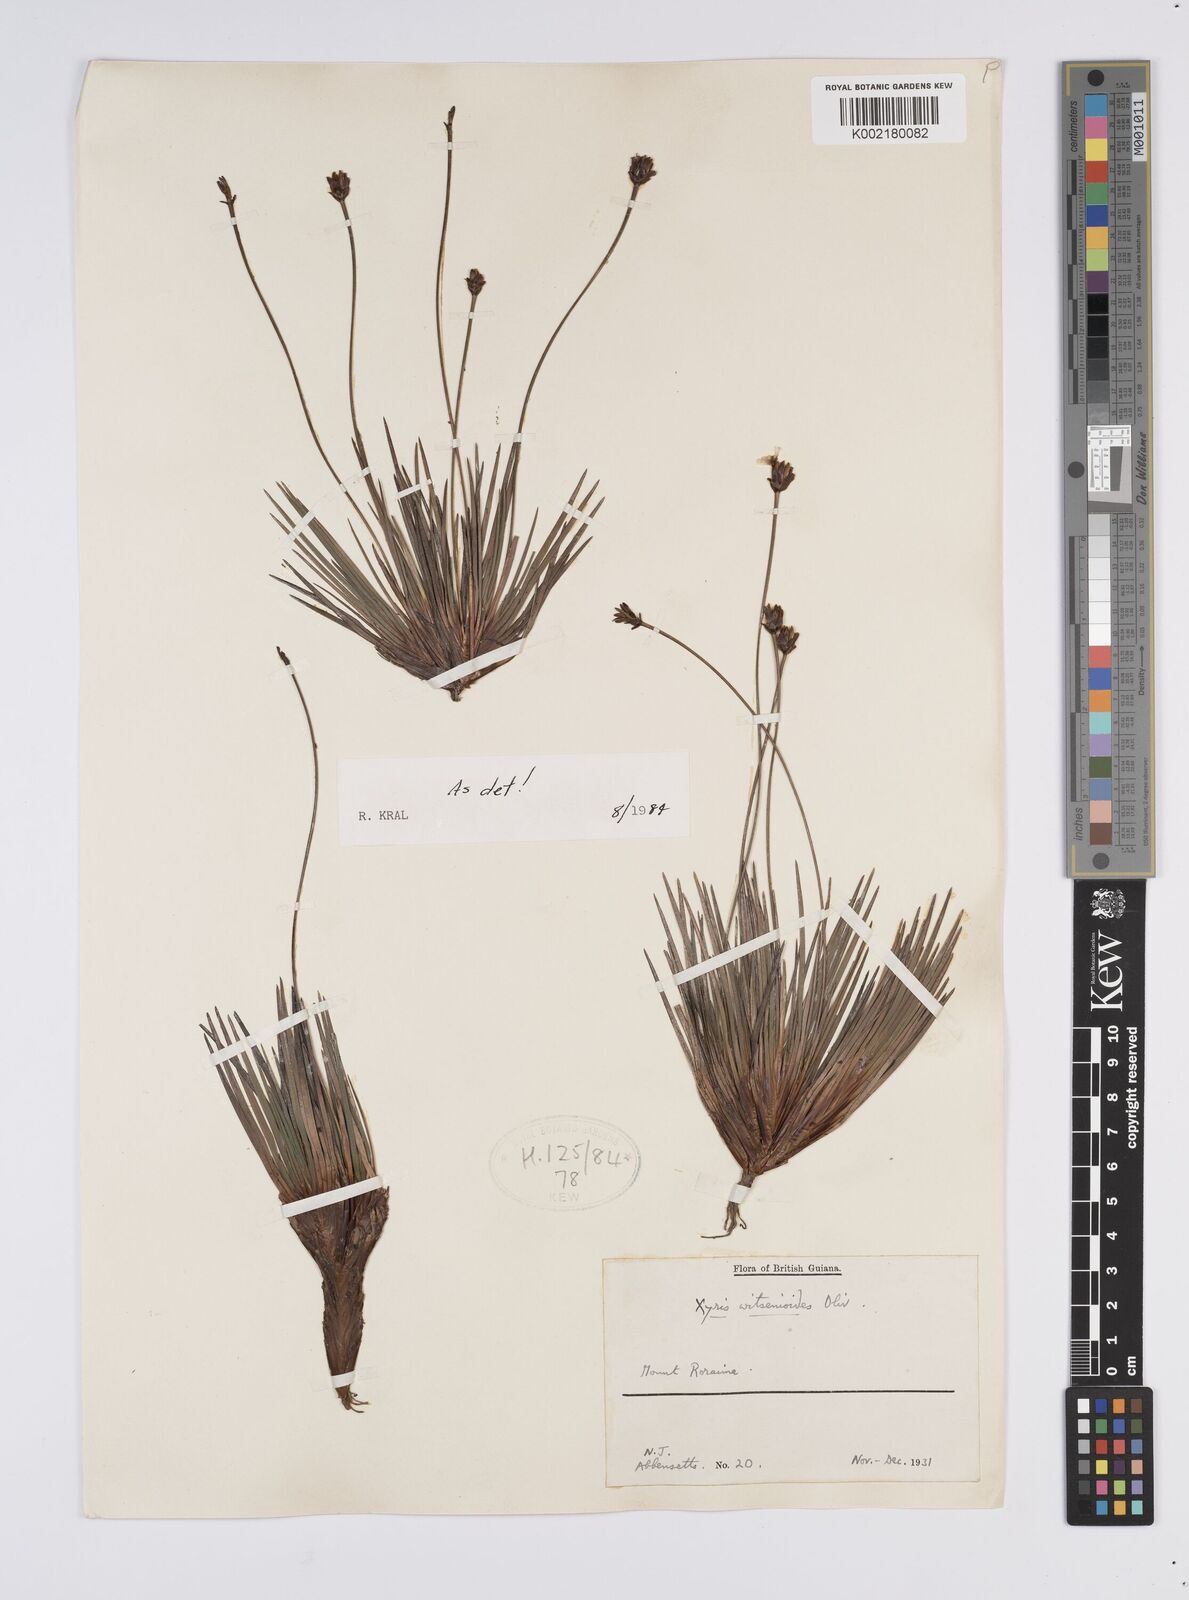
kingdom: Plantae
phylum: Tracheophyta
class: Liliopsida
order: Poales
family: Xyridaceae
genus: Xyris
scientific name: Xyris witsenioides
